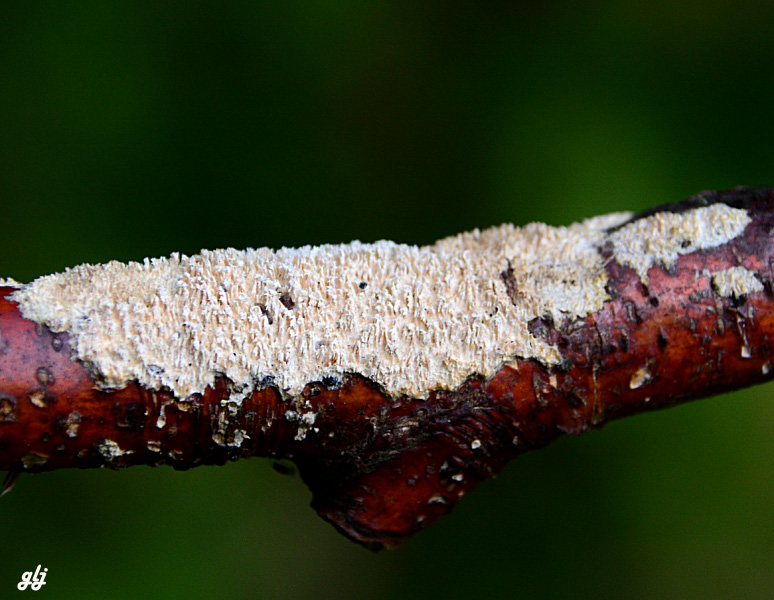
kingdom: Fungi
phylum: Basidiomycota
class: Agaricomycetes
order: Corticiales
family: Corticiaceae
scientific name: Corticiaceae
